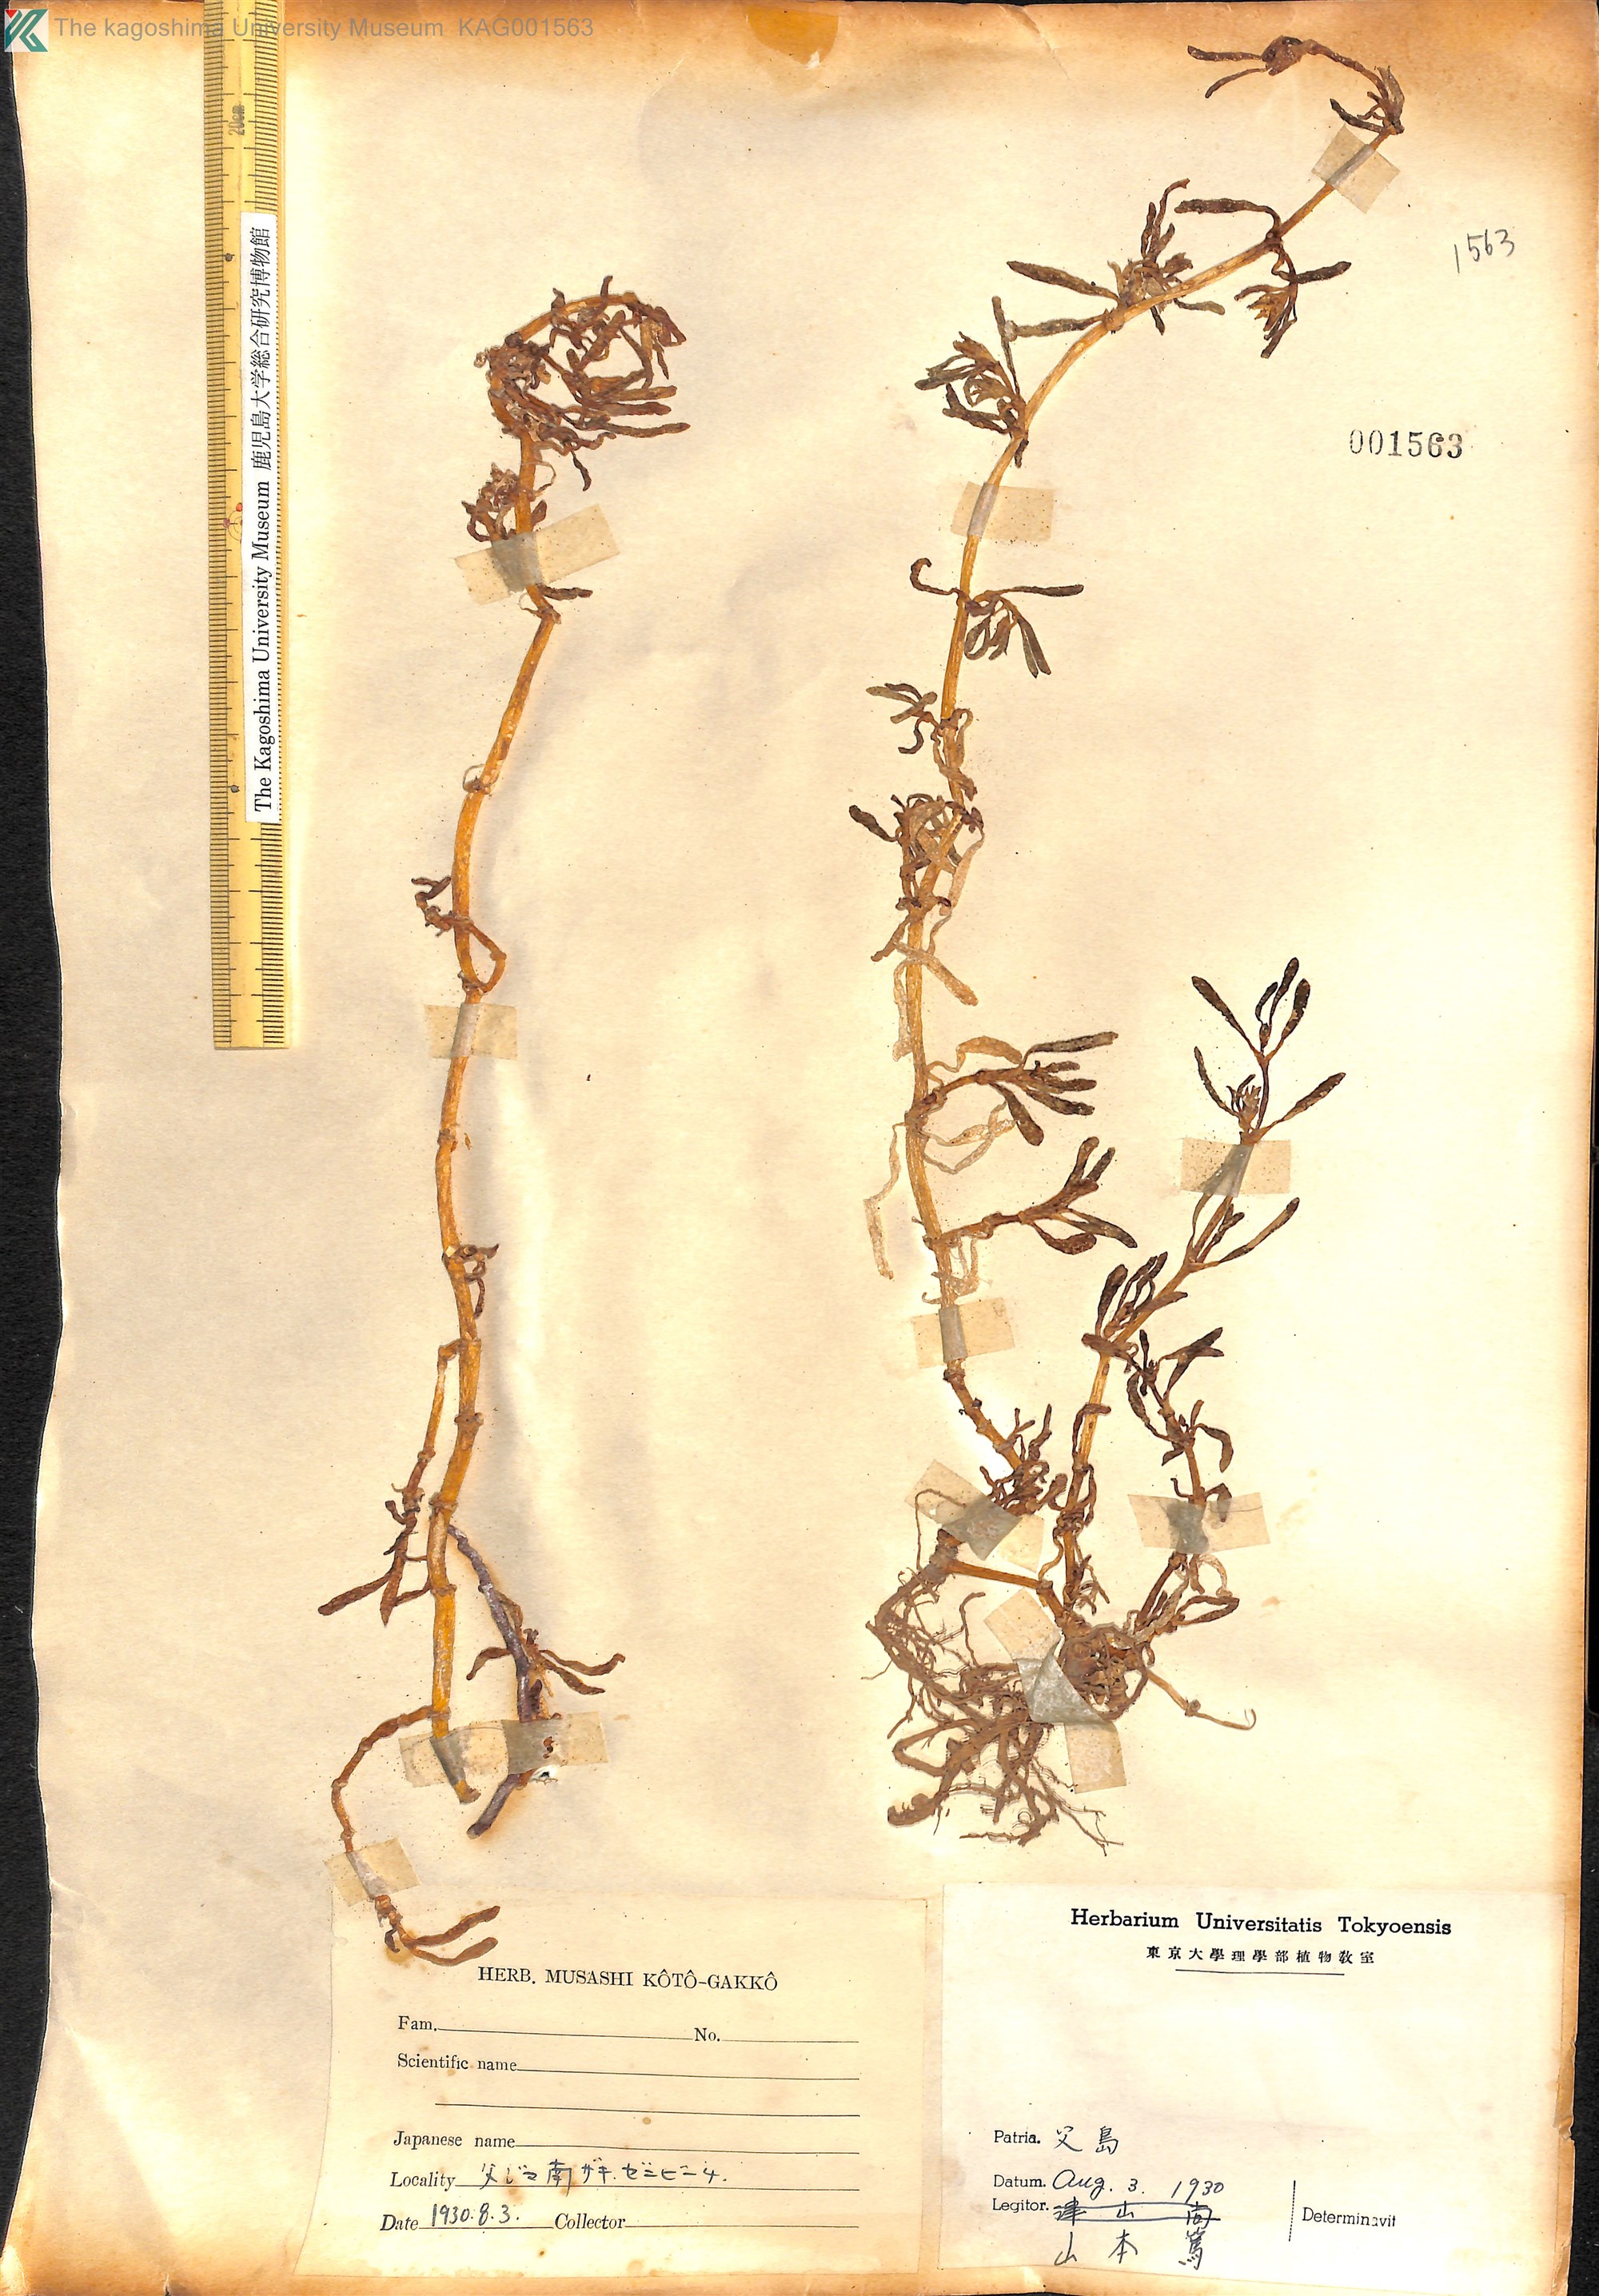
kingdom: Plantae
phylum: Tracheophyta
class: Magnoliopsida
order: Caryophyllales
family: Aizoaceae
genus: Sesuvium
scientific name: Sesuvium portulacastrum
